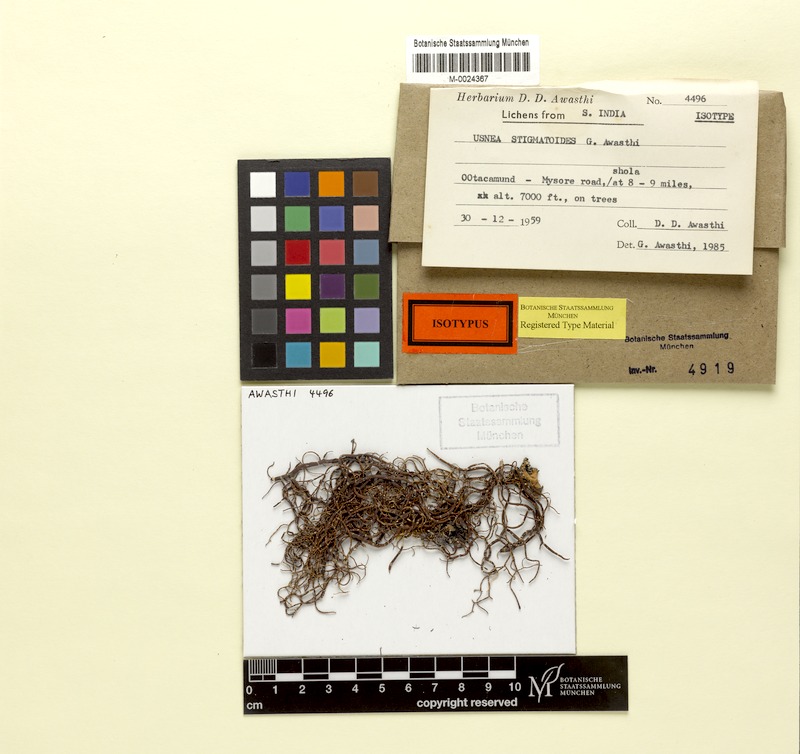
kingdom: Fungi
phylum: Ascomycota
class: Lecanoromycetes
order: Lecanorales
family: Parmeliaceae
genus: Usnea
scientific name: Usnea stigmatoides
